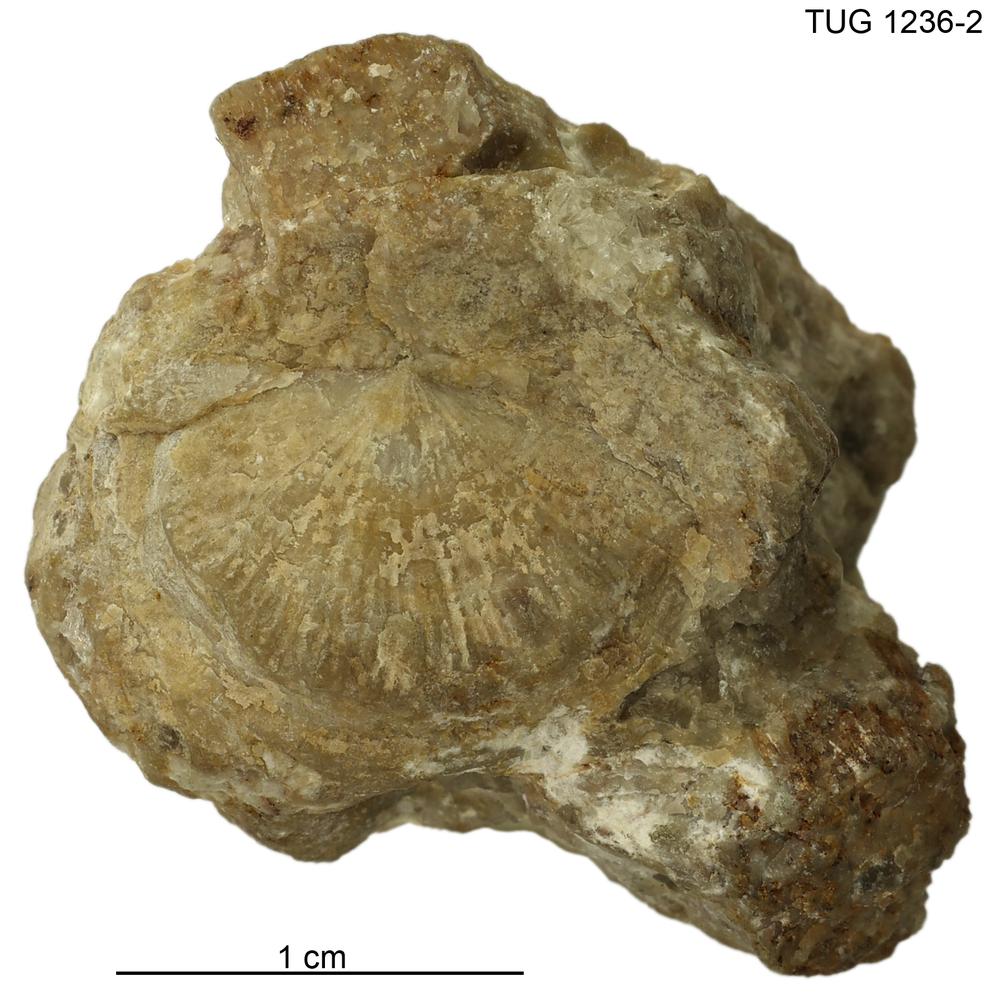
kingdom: Animalia
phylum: Brachiopoda
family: Strophomenidae
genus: Holtedahlina
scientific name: Holtedahlina
